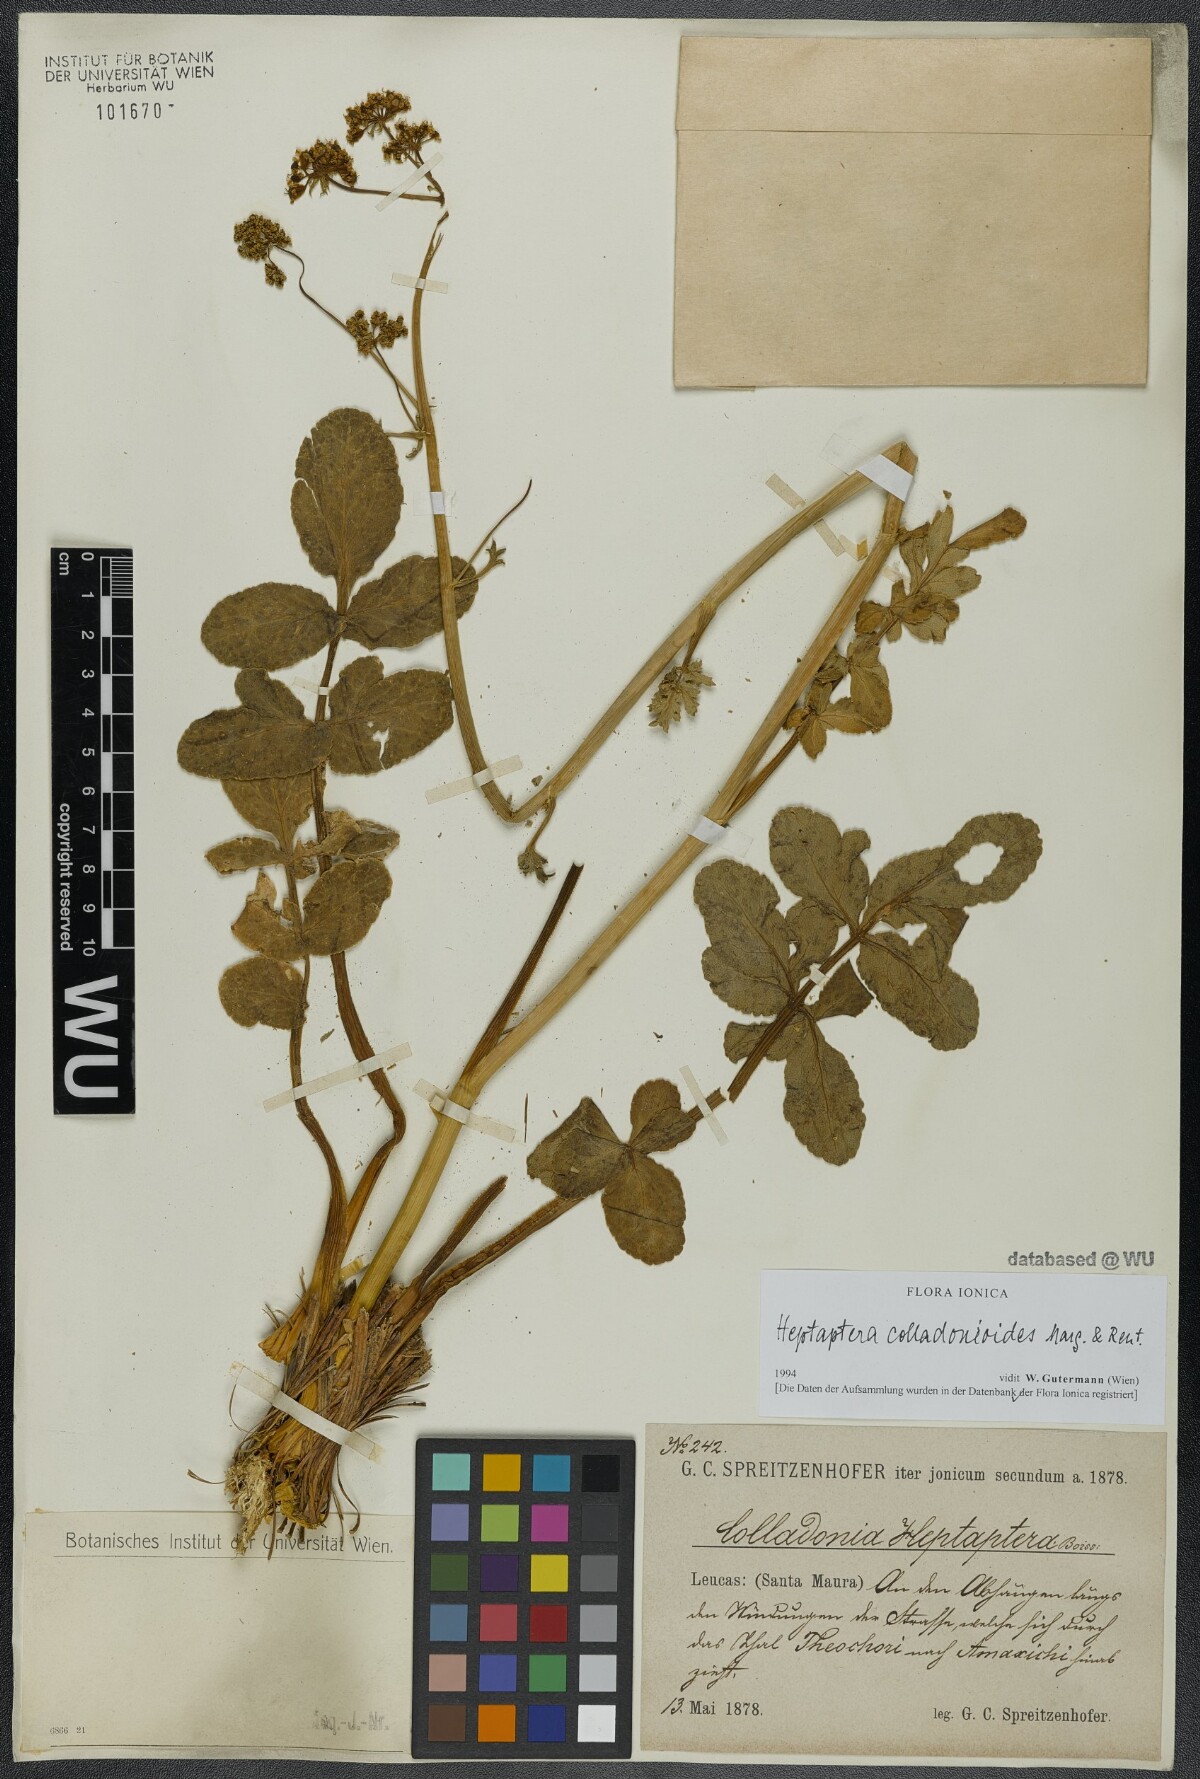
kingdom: Plantae
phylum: Tracheophyta
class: Magnoliopsida
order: Apiales
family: Apiaceae
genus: Heptaptera
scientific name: Heptaptera colladonioides
